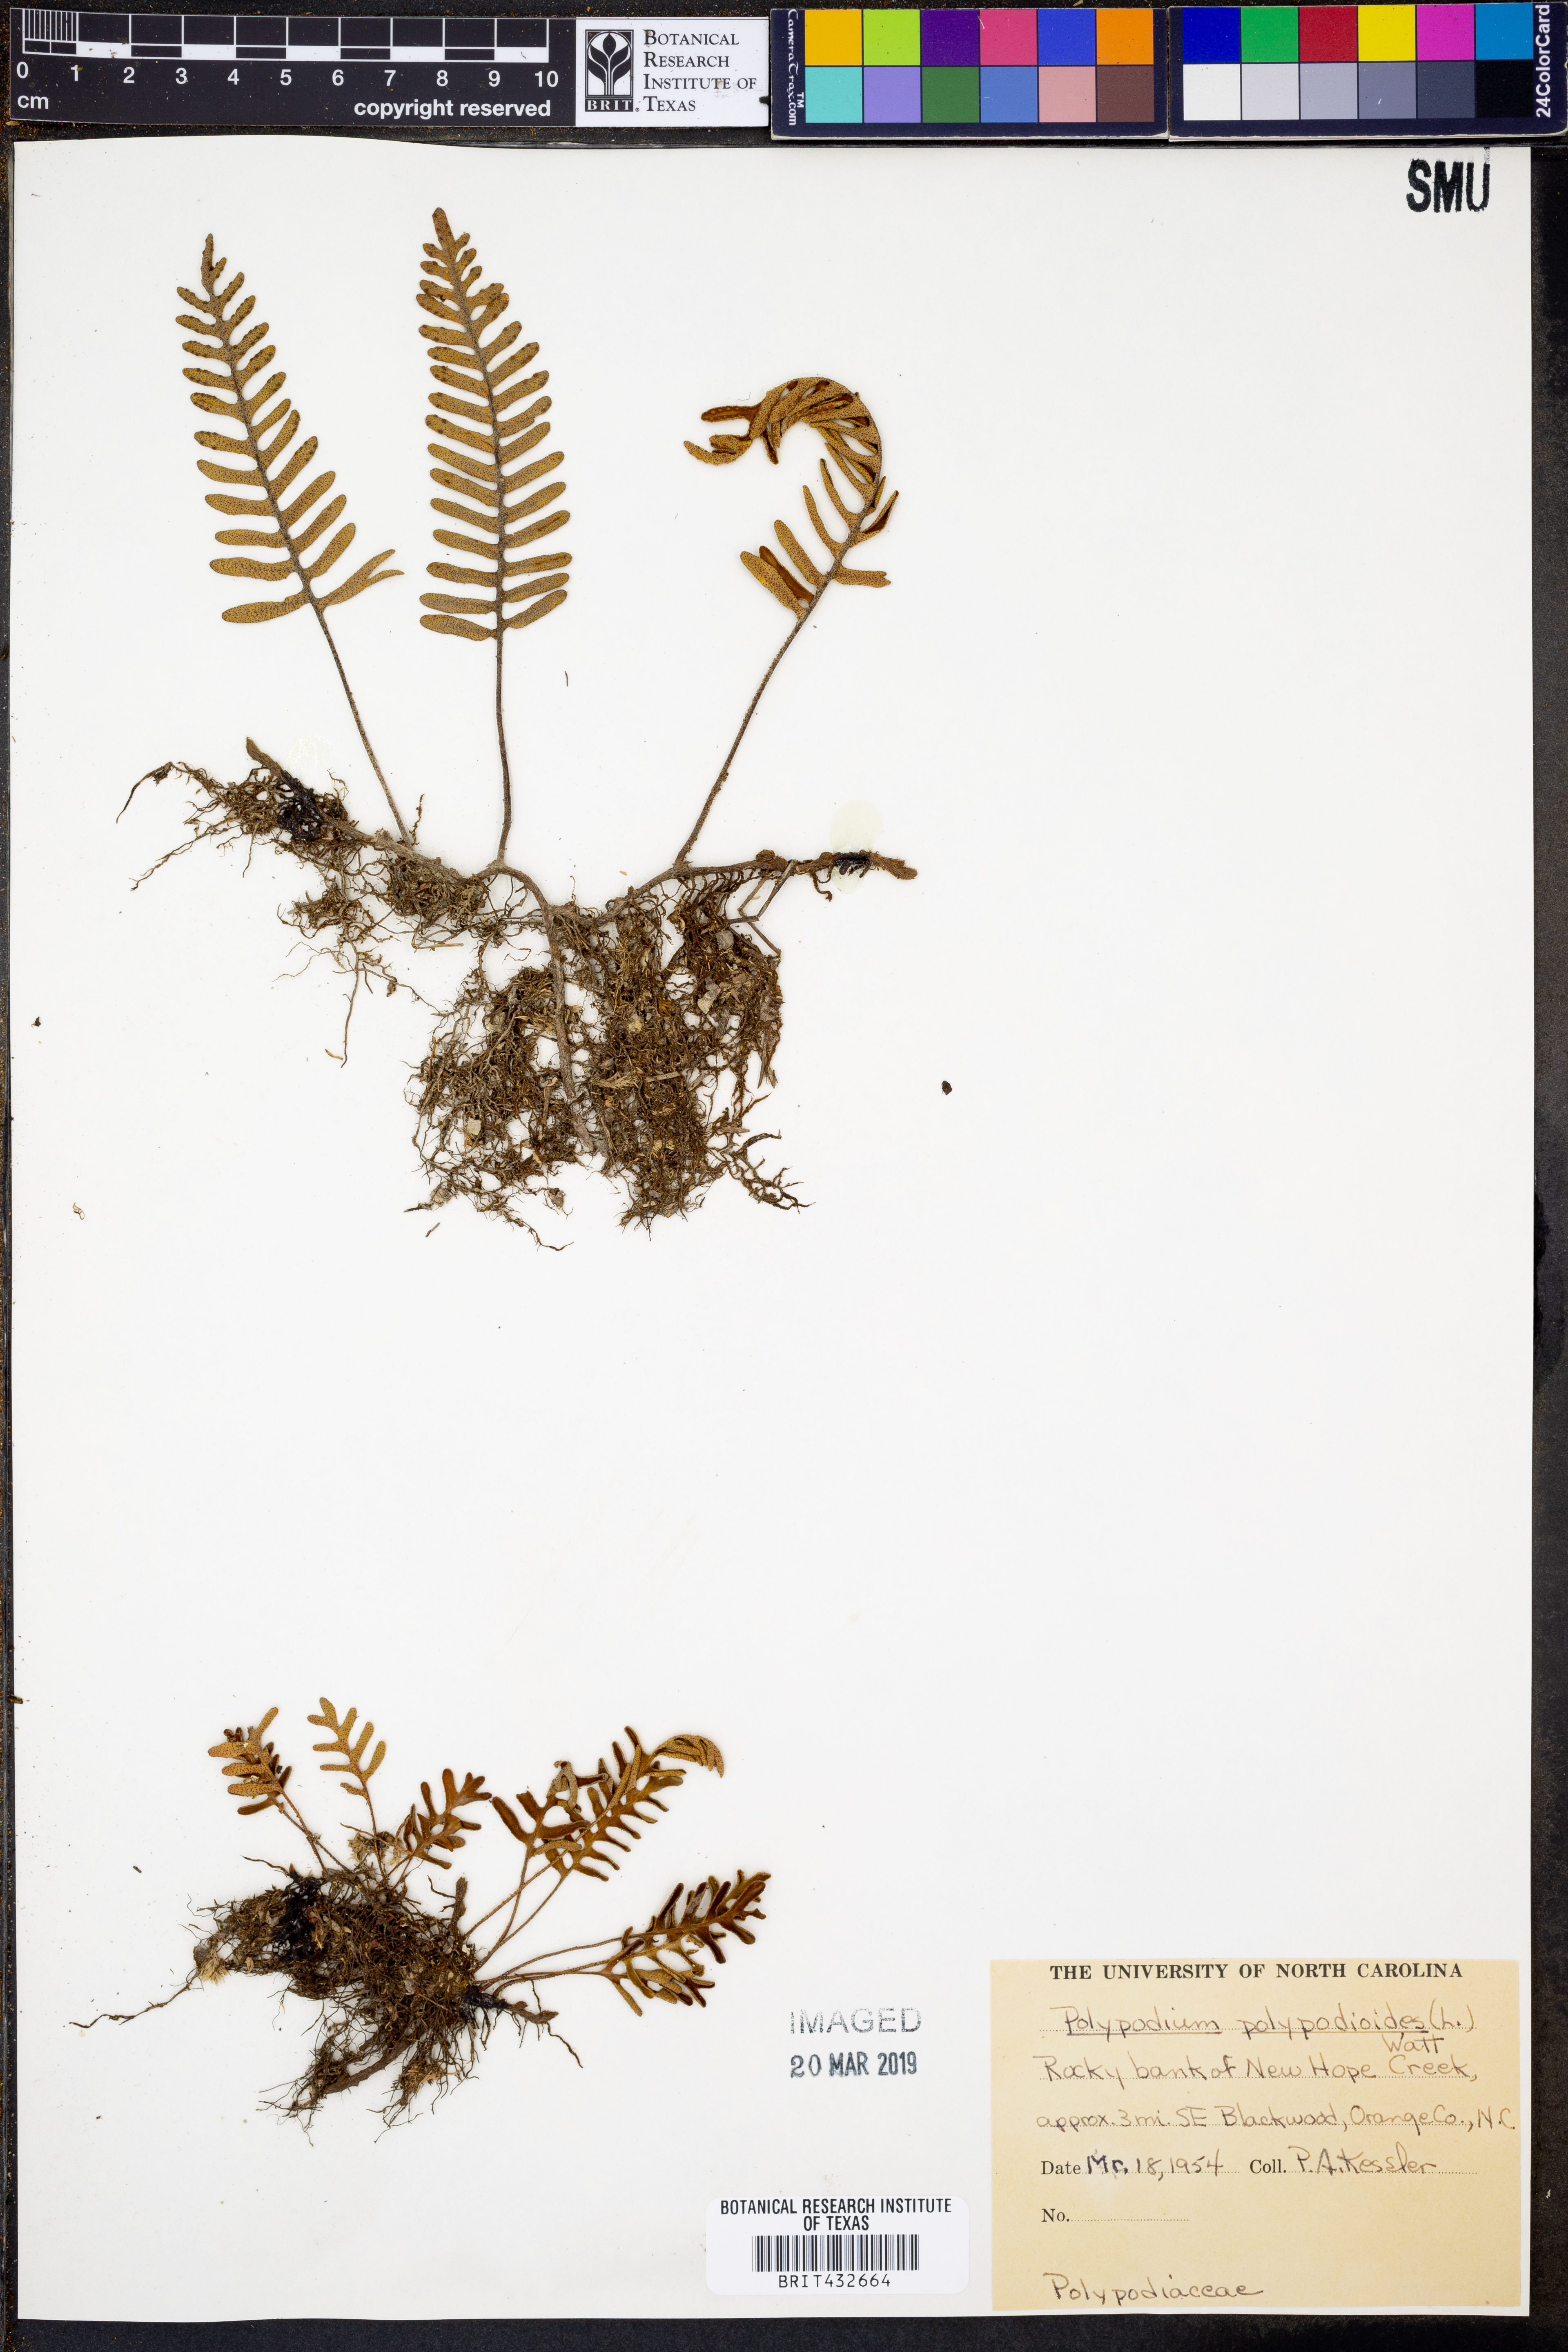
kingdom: Plantae
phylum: Tracheophyta
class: Polypodiopsida
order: Polypodiales
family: Polypodiaceae
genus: Pleopeltis
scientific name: Pleopeltis polypodioides
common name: Resurrection fern
